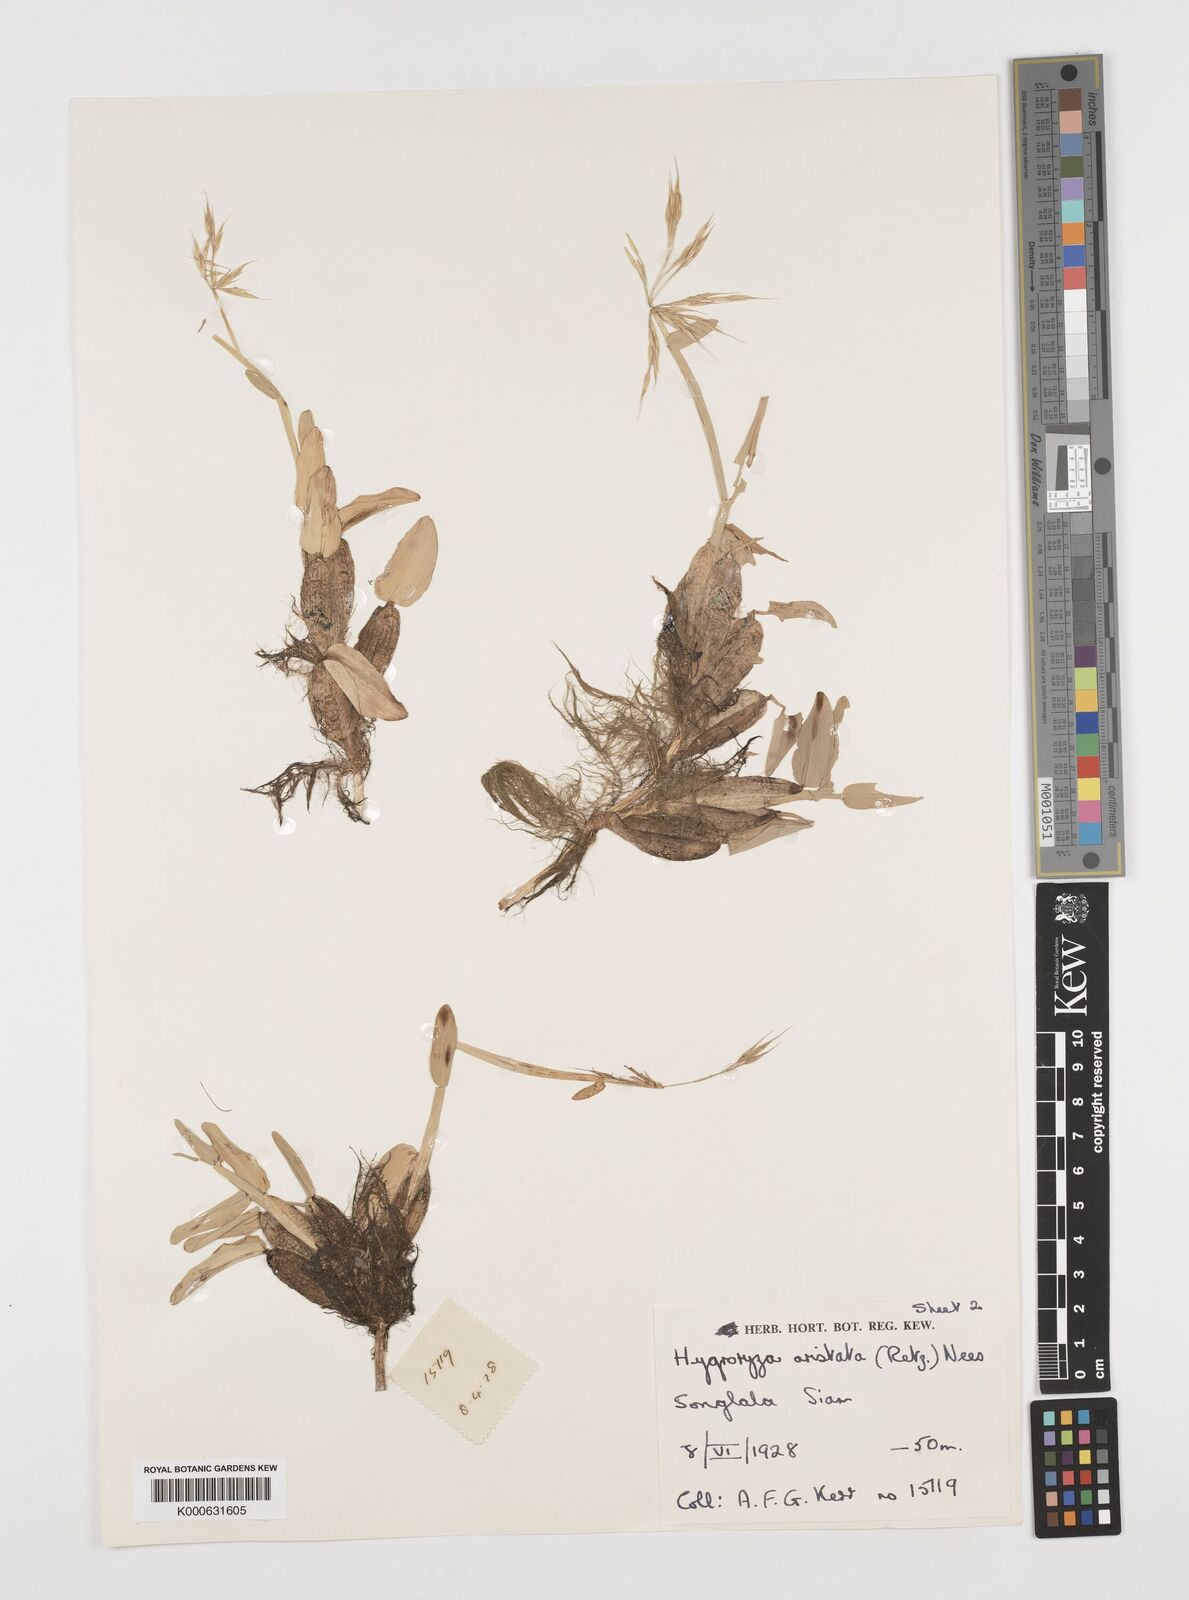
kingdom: Plantae
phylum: Tracheophyta
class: Liliopsida
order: Poales
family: Poaceae
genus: Hygroryza
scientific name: Hygroryza
